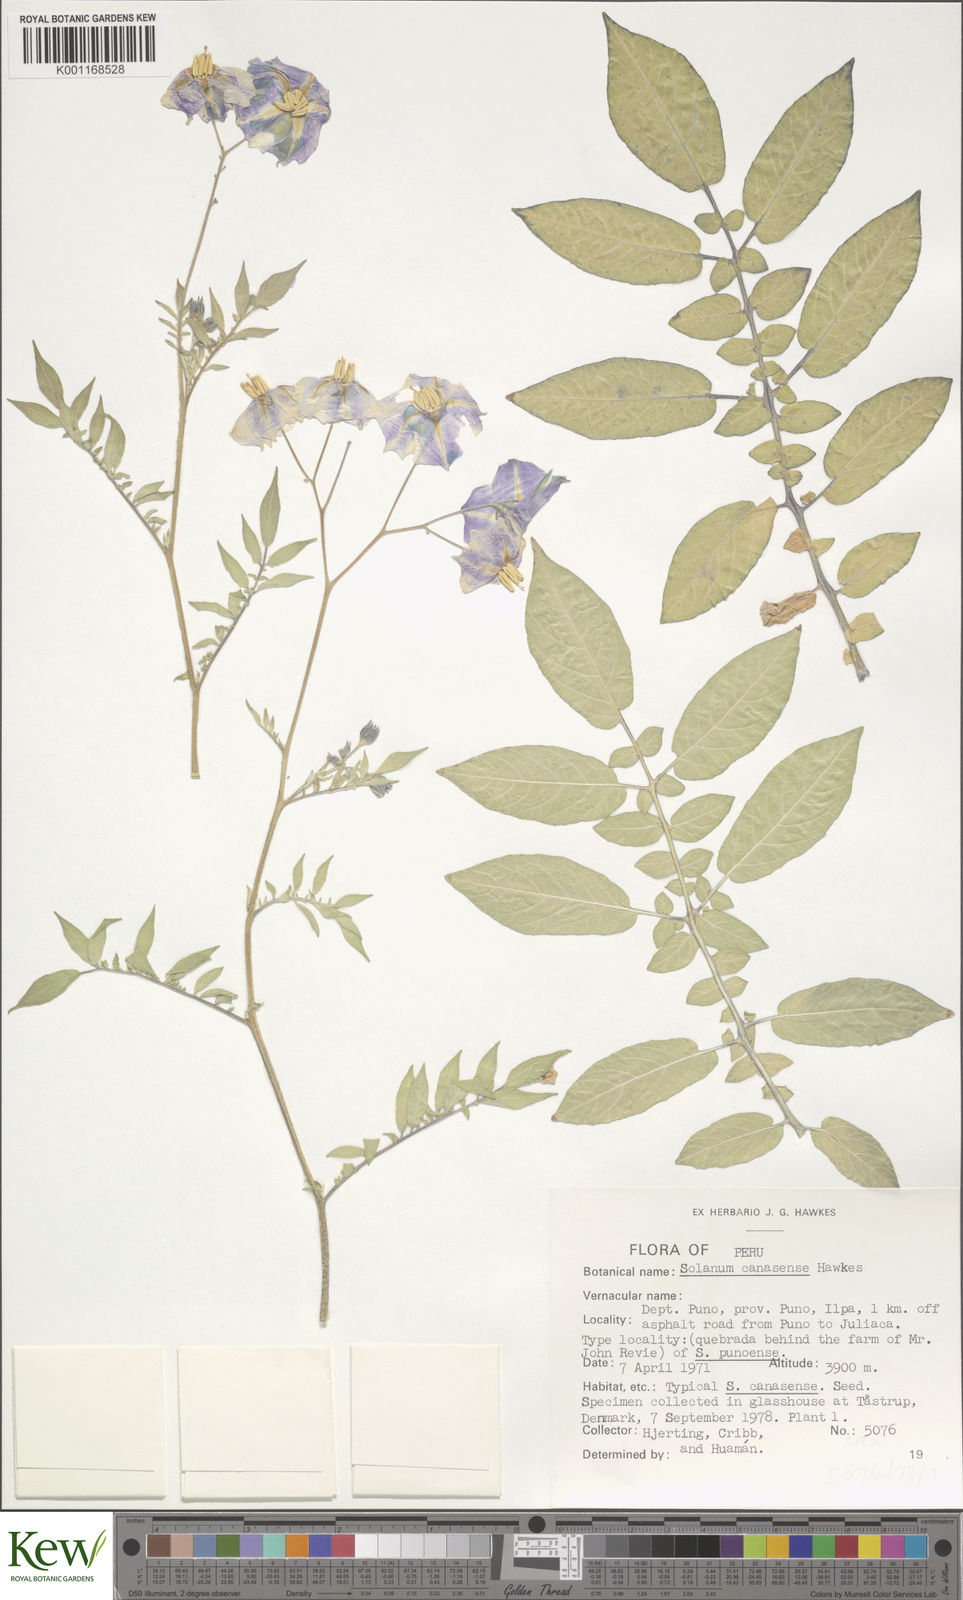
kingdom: Plantae
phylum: Tracheophyta
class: Magnoliopsida
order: Solanales
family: Solanaceae
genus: Solanum
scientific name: Solanum candolleanum
